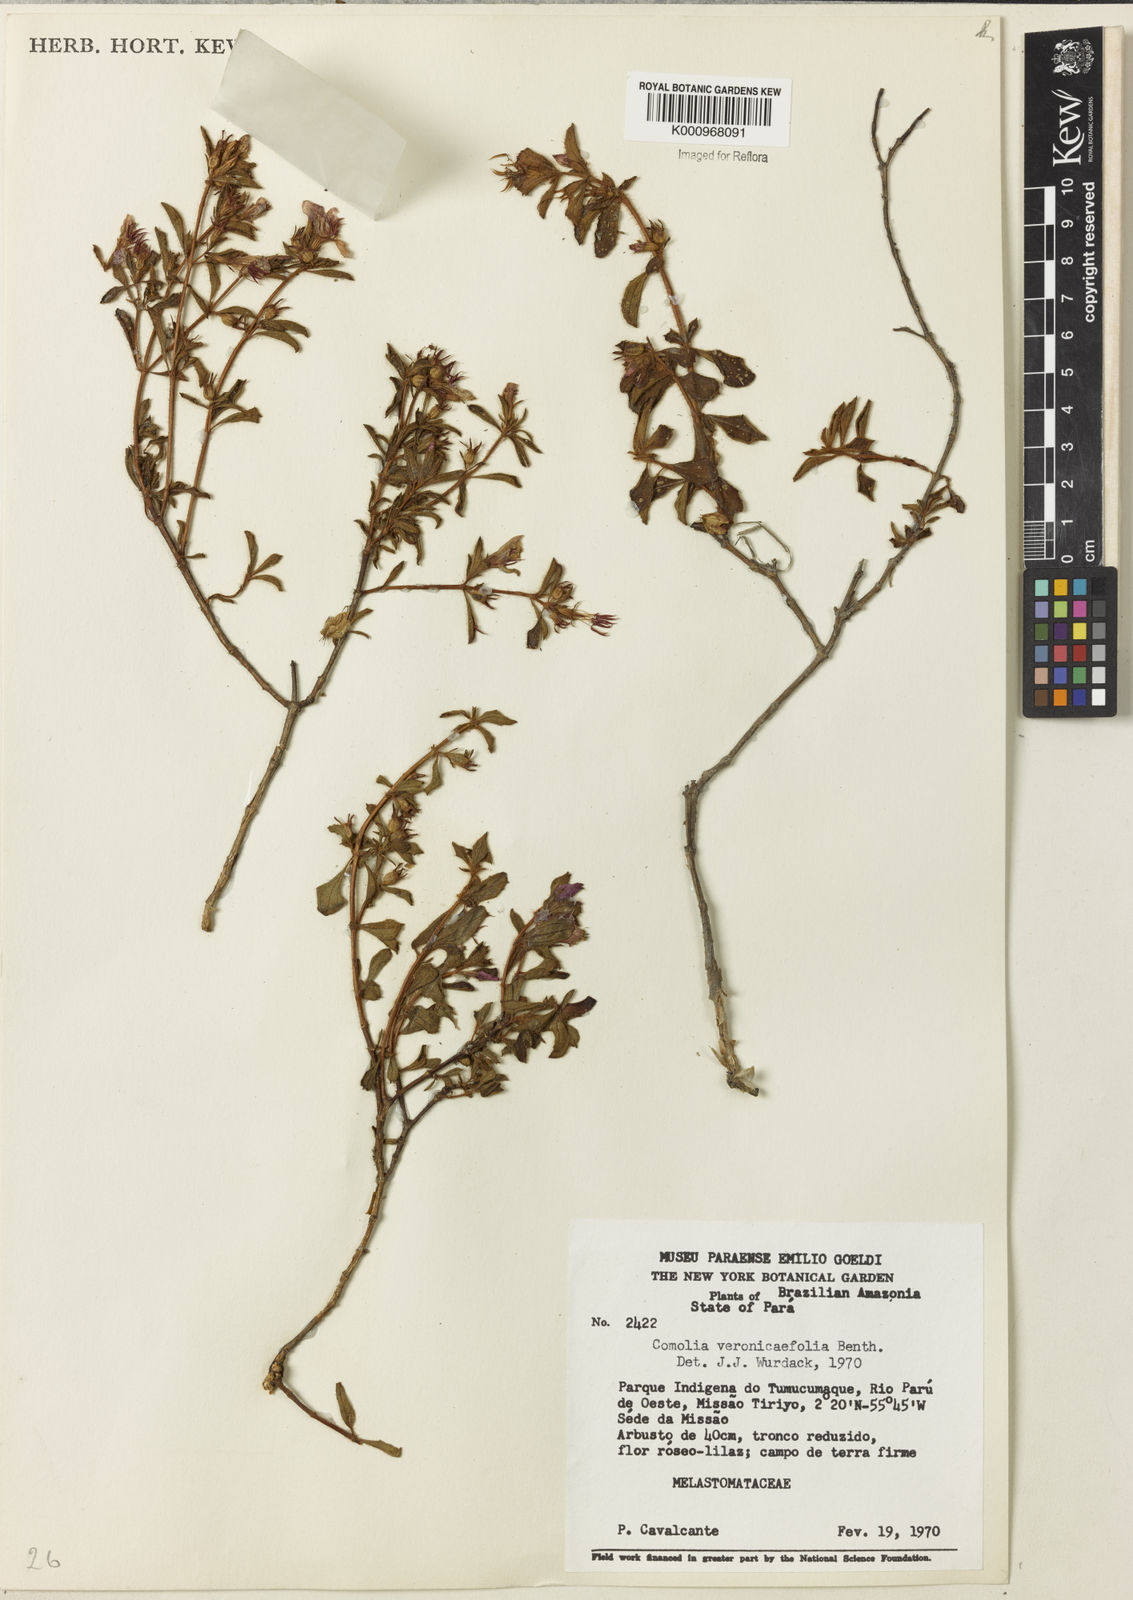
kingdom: Plantae
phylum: Tracheophyta
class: Magnoliopsida
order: Myrtales
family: Melastomataceae
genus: Comolia
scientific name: Comolia villosa
